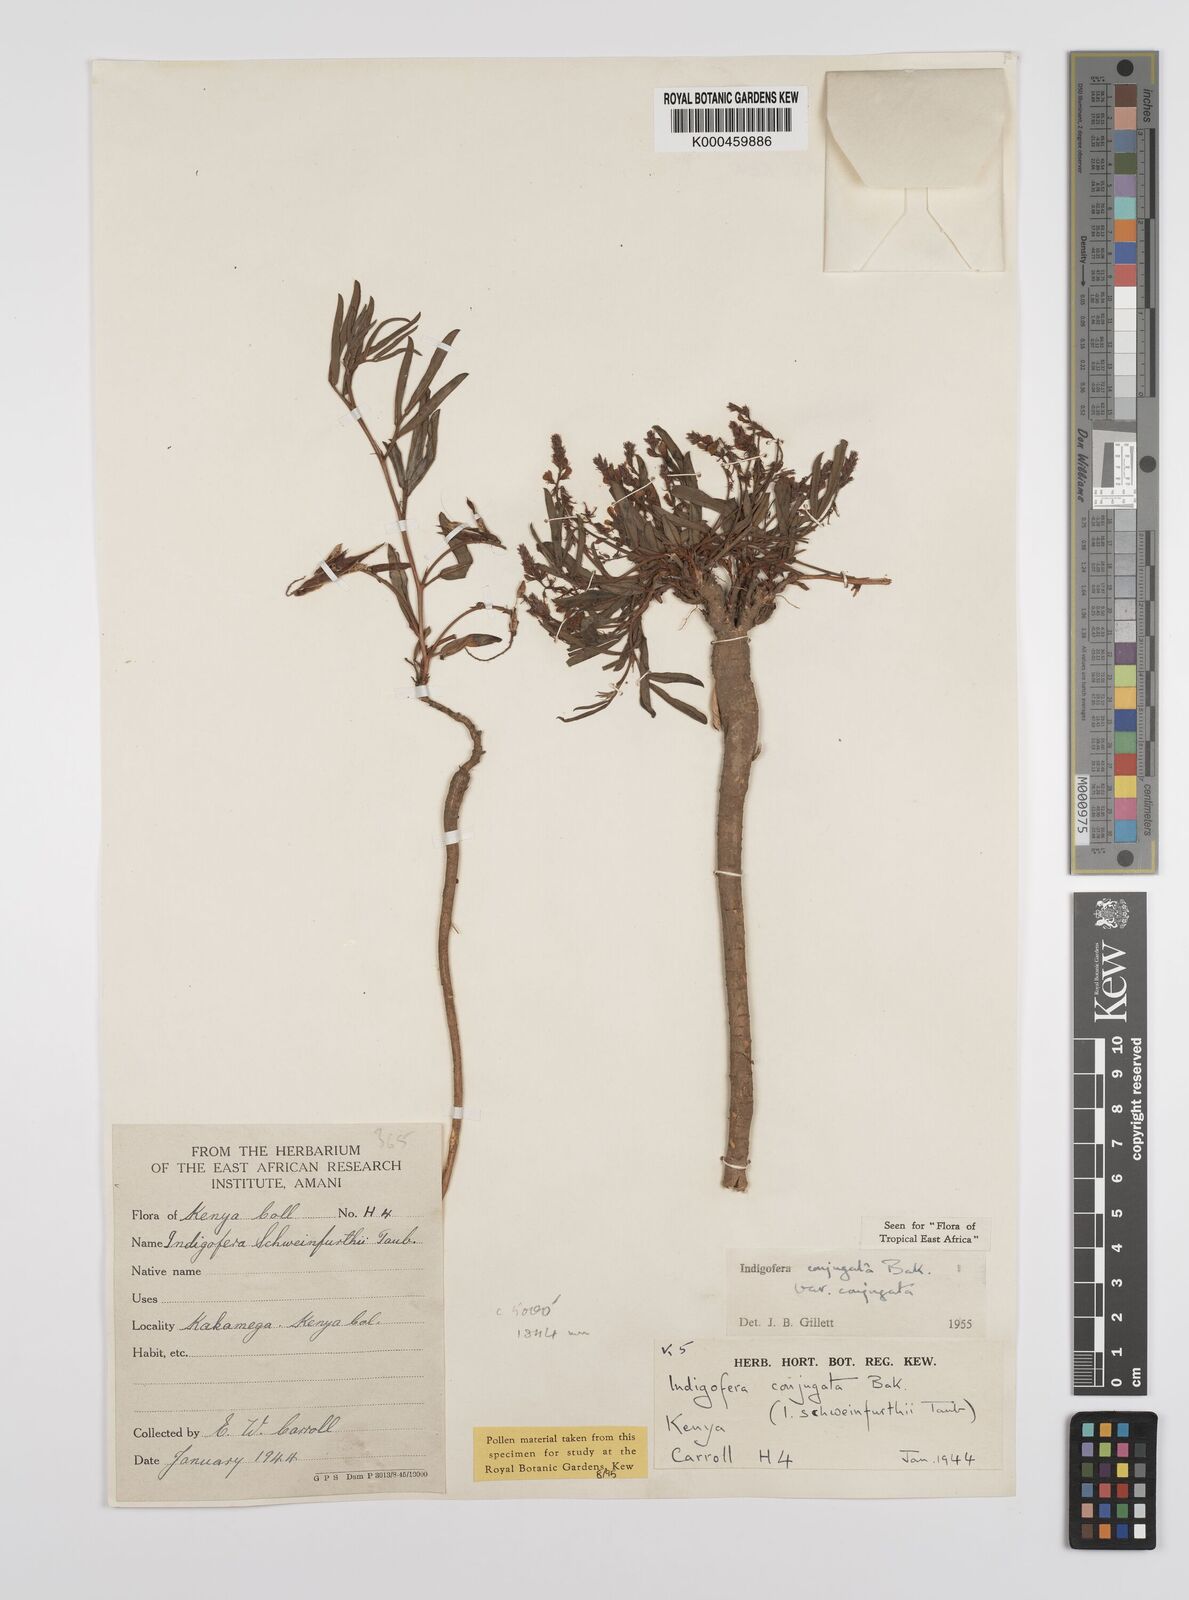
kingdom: Plantae
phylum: Tracheophyta
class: Magnoliopsida
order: Fabales
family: Fabaceae
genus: Indigofera
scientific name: Indigofera conjugata
